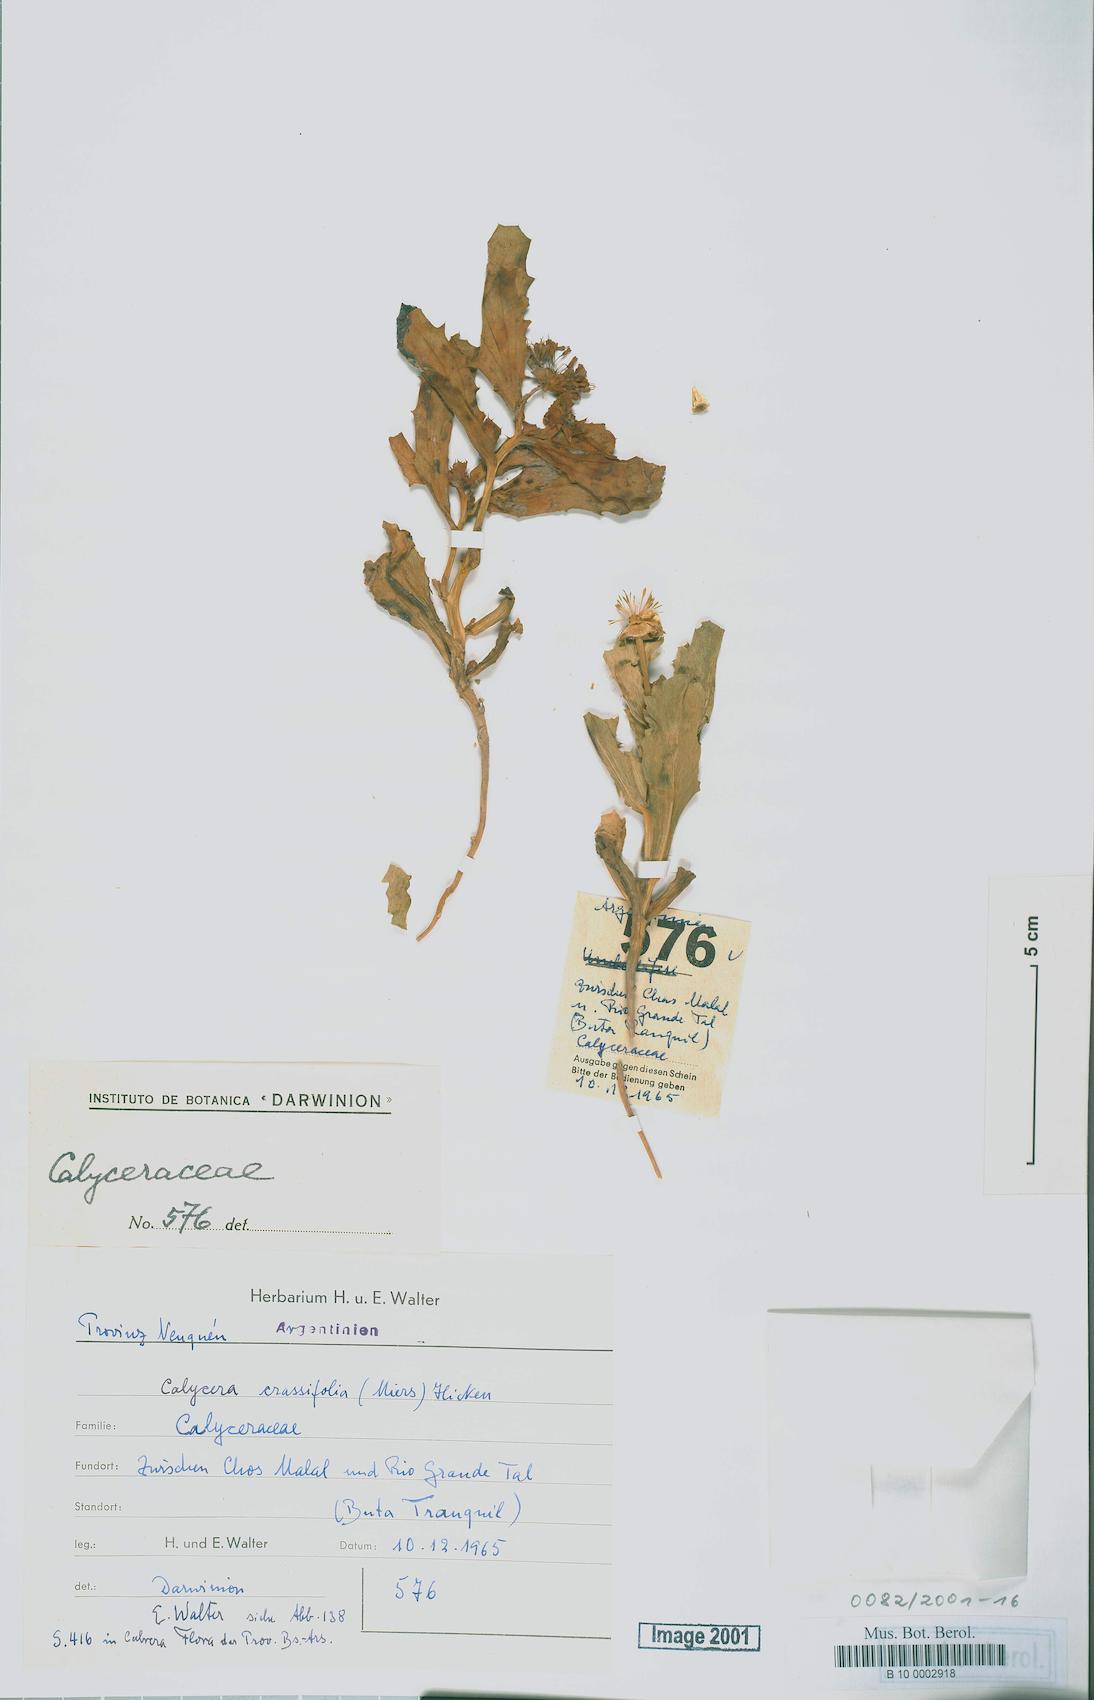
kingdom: Plantae
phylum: Tracheophyta
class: Magnoliopsida
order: Asterales
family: Calyceraceae
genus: Calycera
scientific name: Calycera crassifolia
